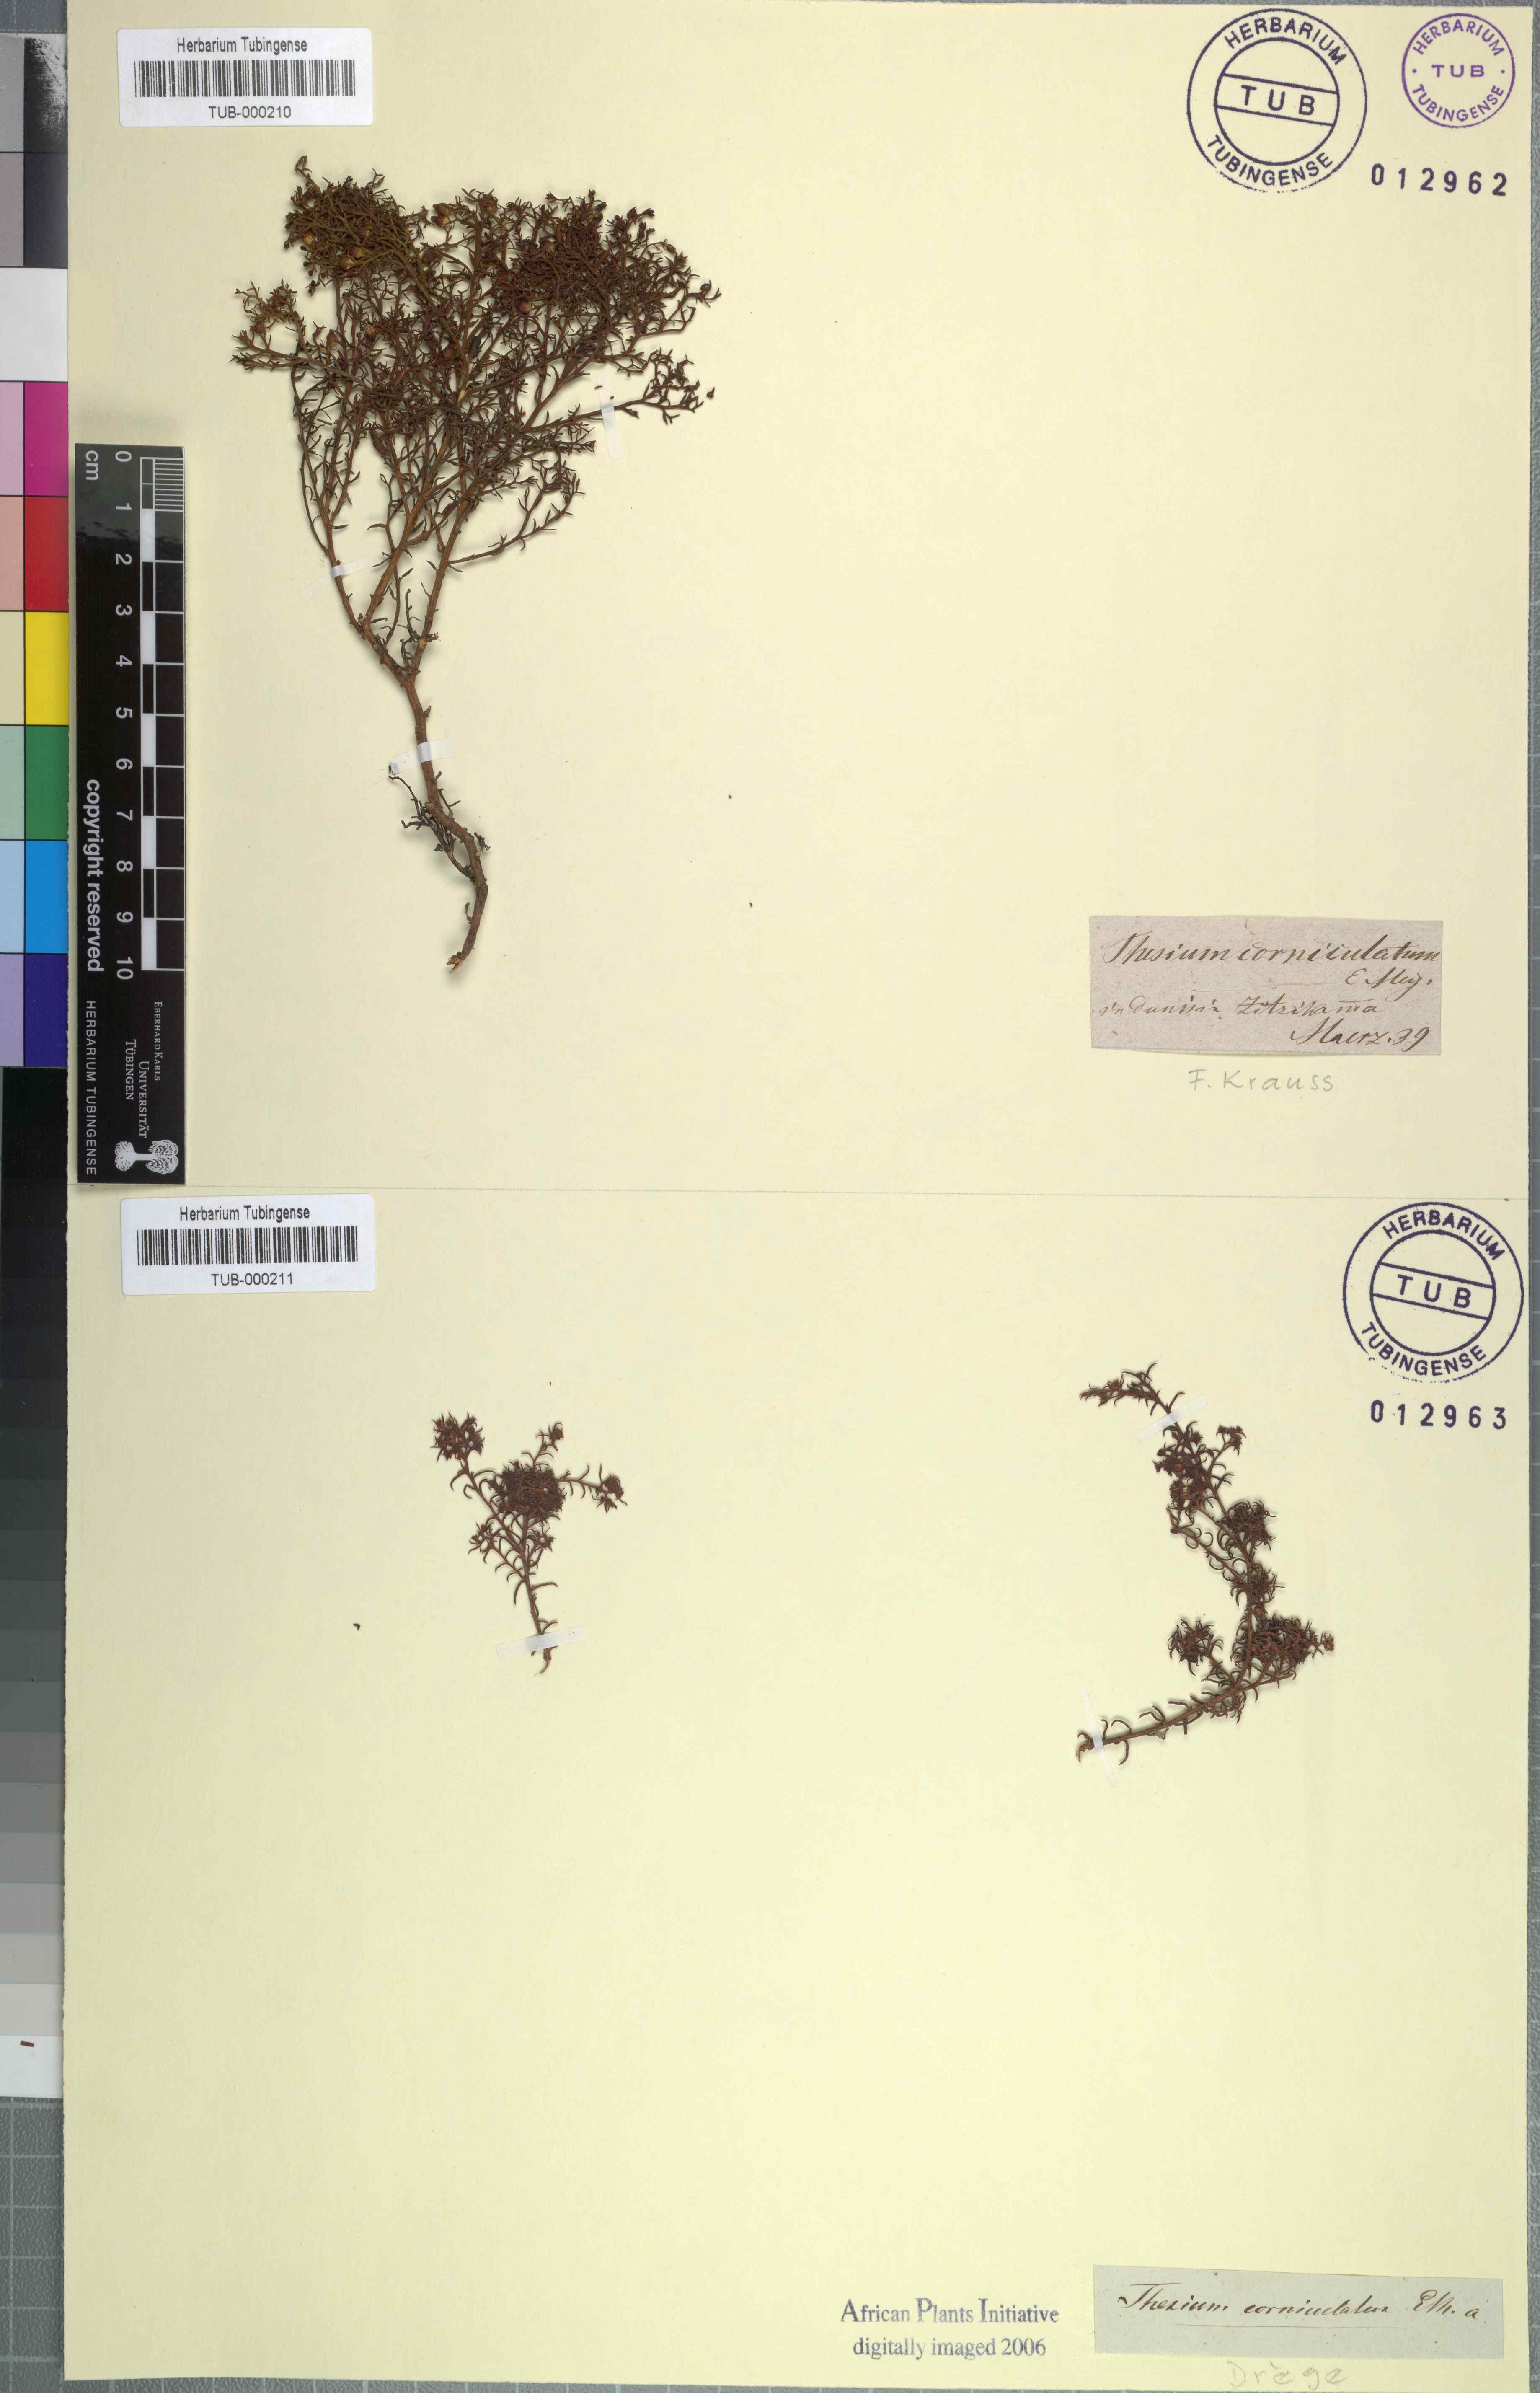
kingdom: Plantae
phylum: Tracheophyta
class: Magnoliopsida
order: Santalales
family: Thesiaceae
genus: Thesium
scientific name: Thesium acutissimum
